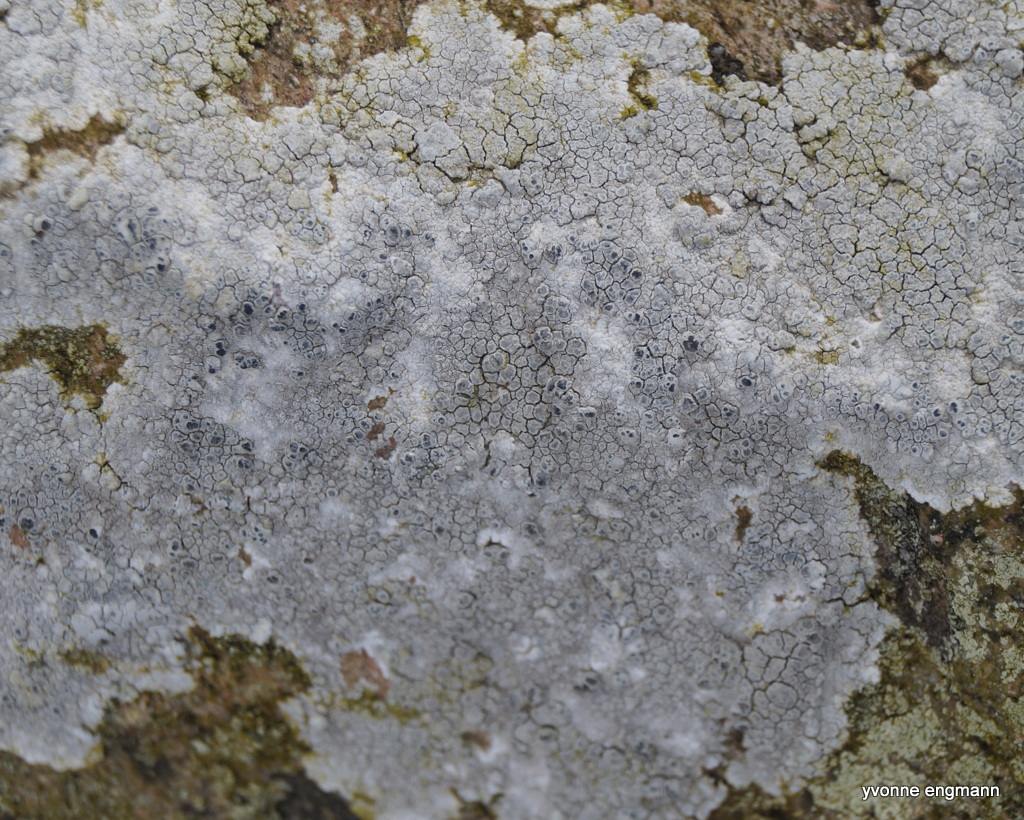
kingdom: Fungi
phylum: Ascomycota
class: Lecanoromycetes
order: Lecanorales
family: Lecanoraceae
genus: Glaucomaria
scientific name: Glaucomaria rupicola
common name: stengærde-kantskivelav
